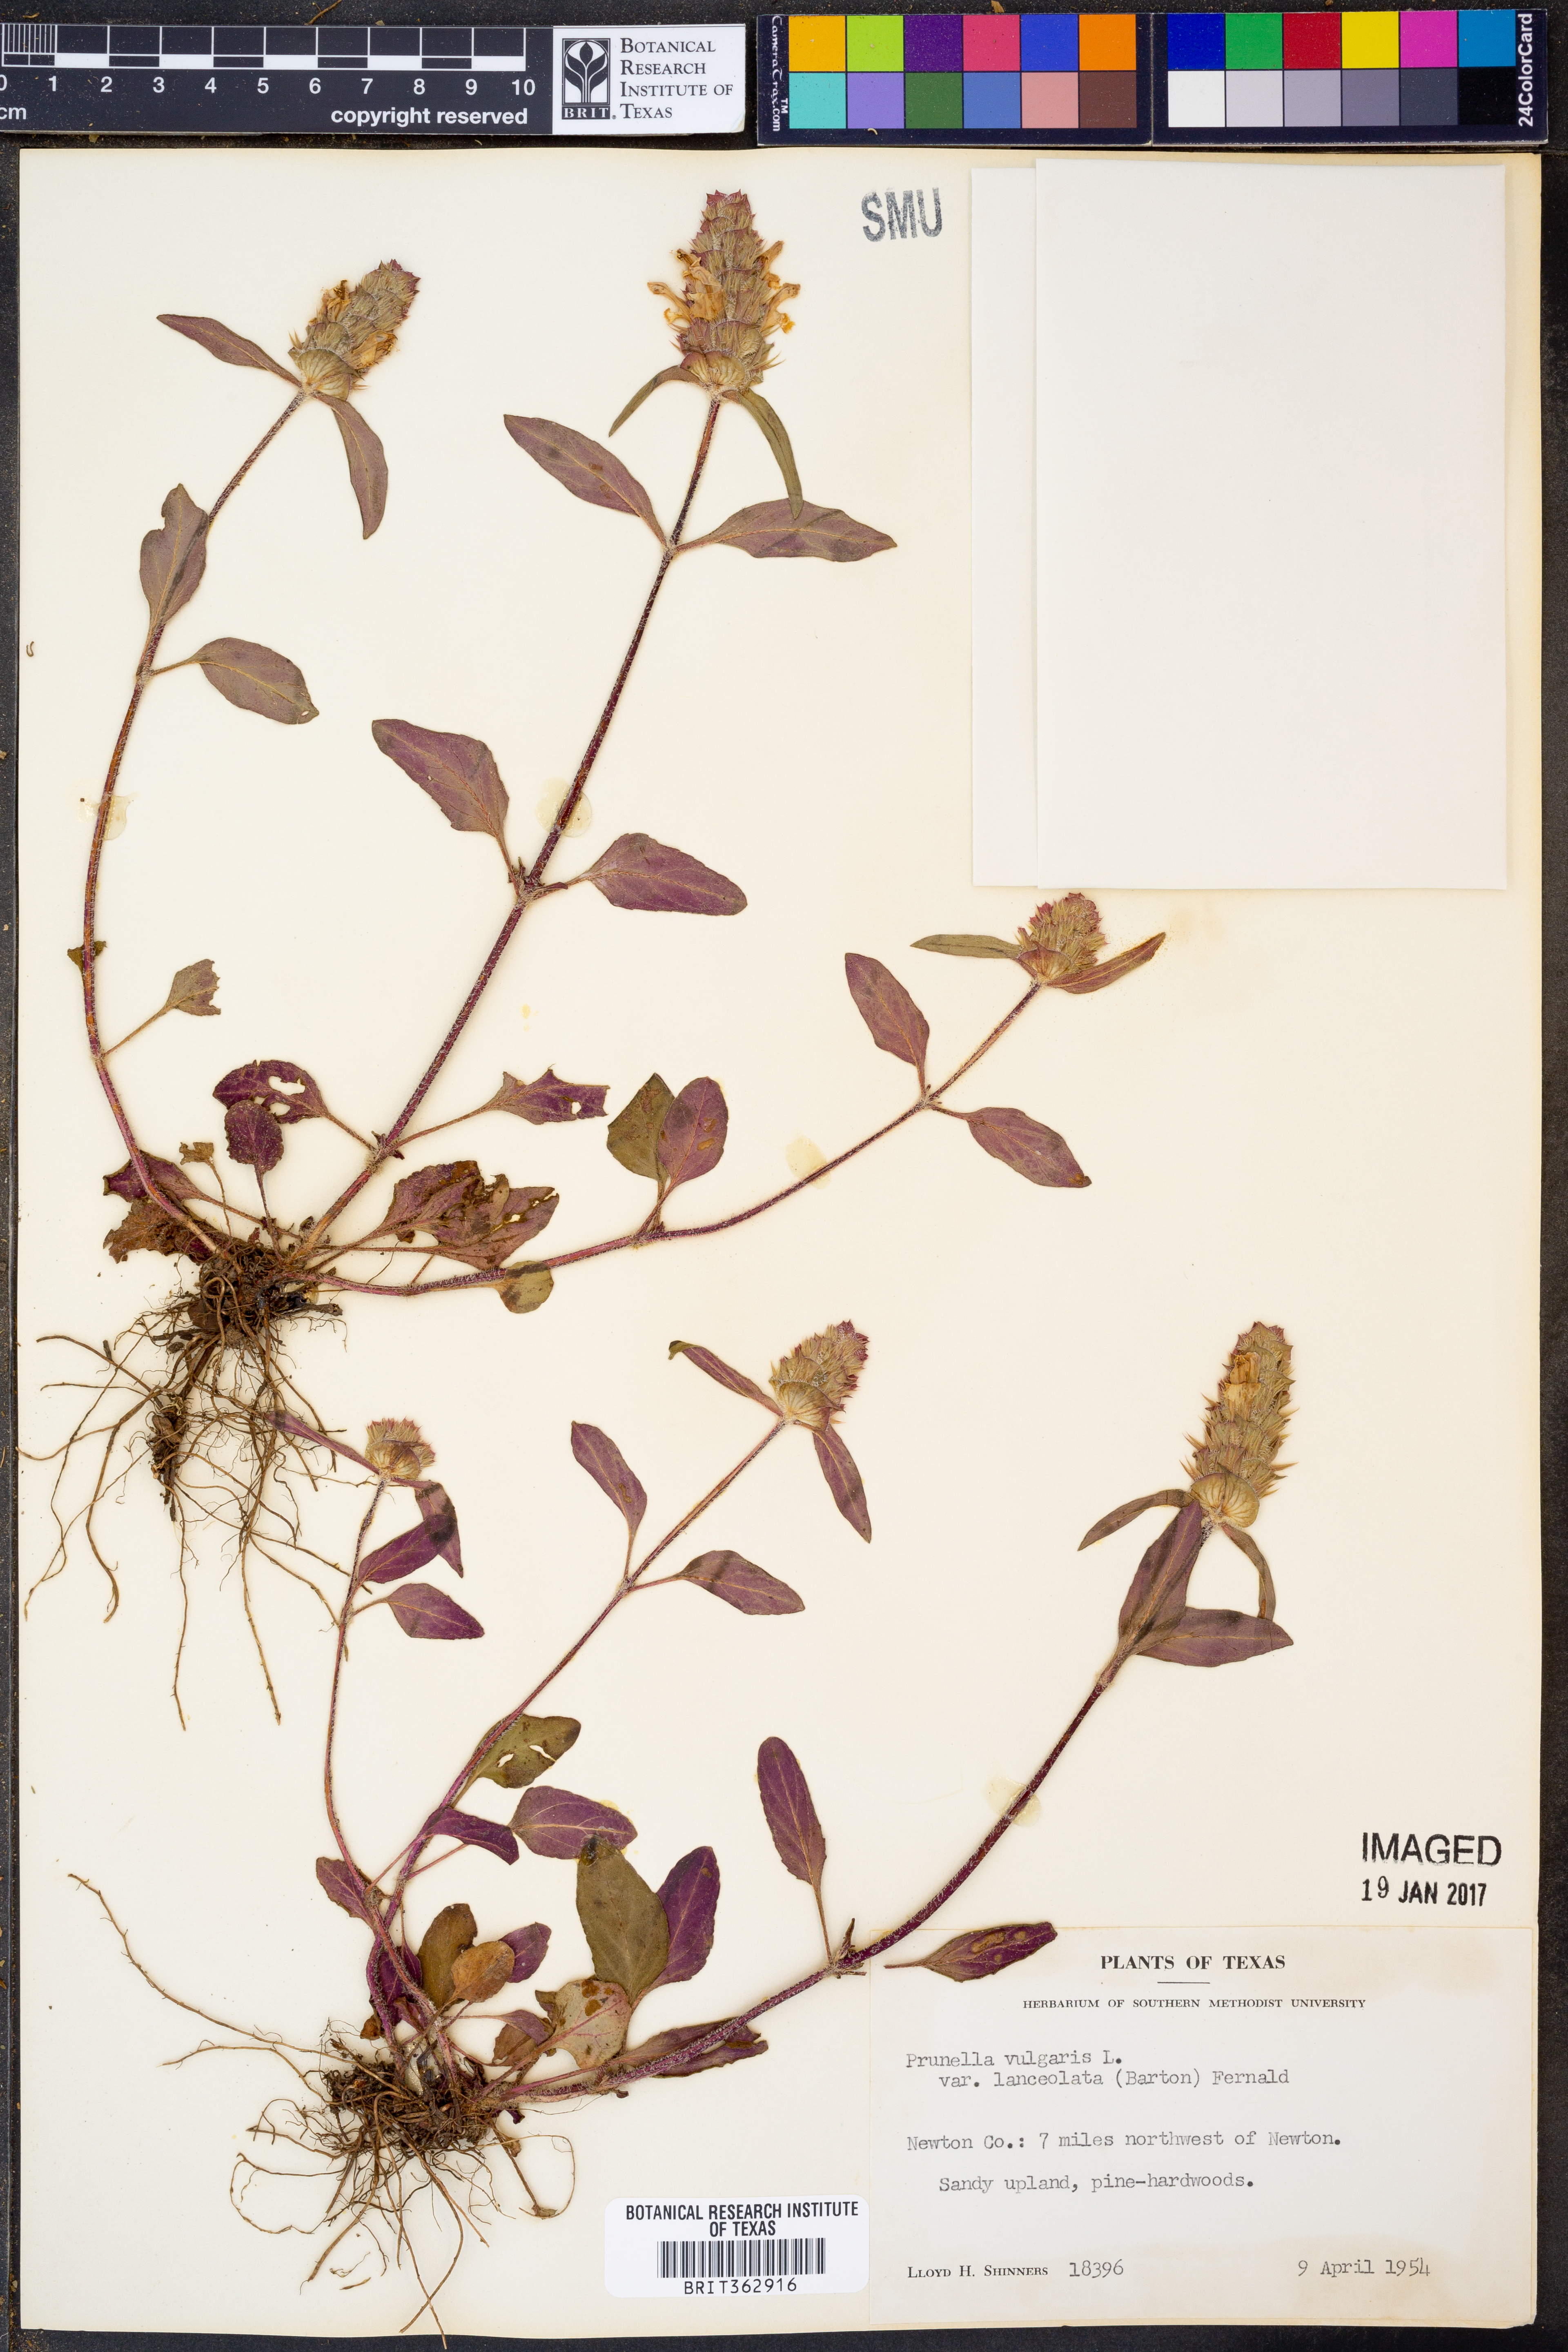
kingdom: Plantae
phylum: Tracheophyta
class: Magnoliopsida
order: Lamiales
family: Lamiaceae
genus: Prunella
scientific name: Prunella vulgaris
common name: Heal-all
